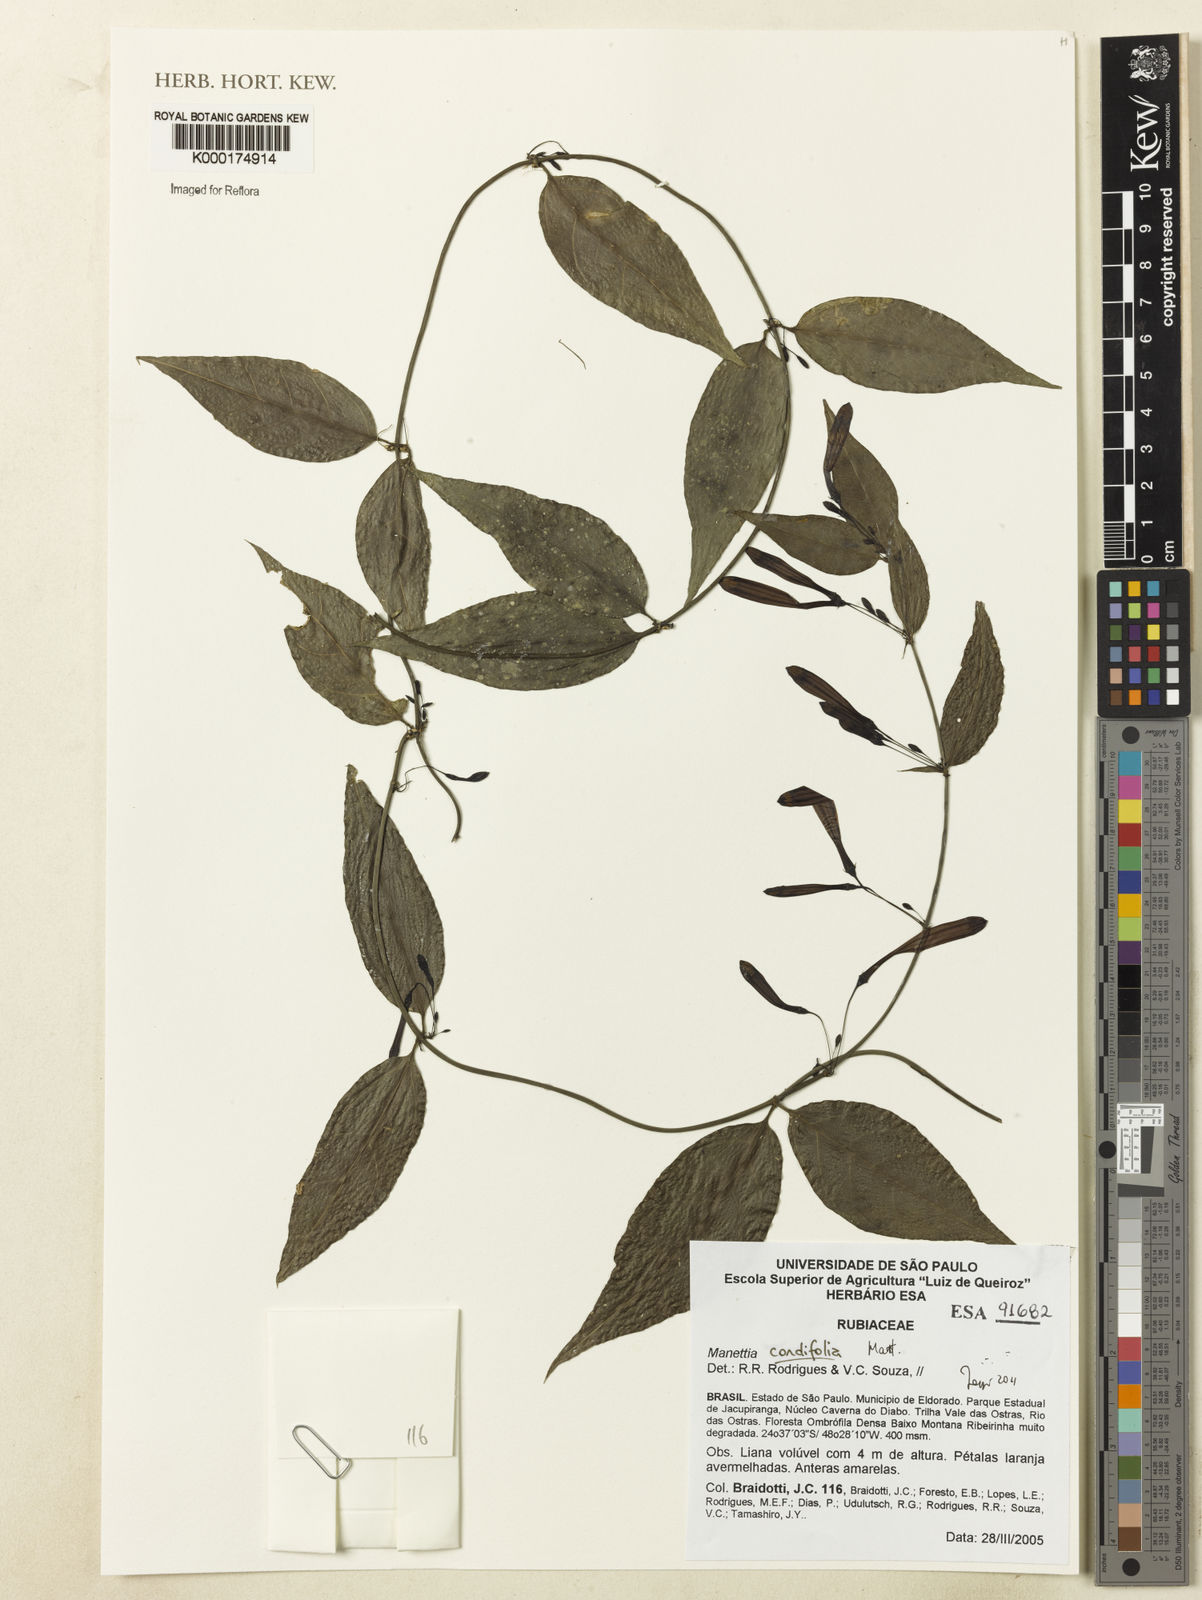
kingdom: Plantae
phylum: Tracheophyta
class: Magnoliopsida
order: Gentianales
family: Rubiaceae
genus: Manettia
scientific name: Manettia cordifolia
